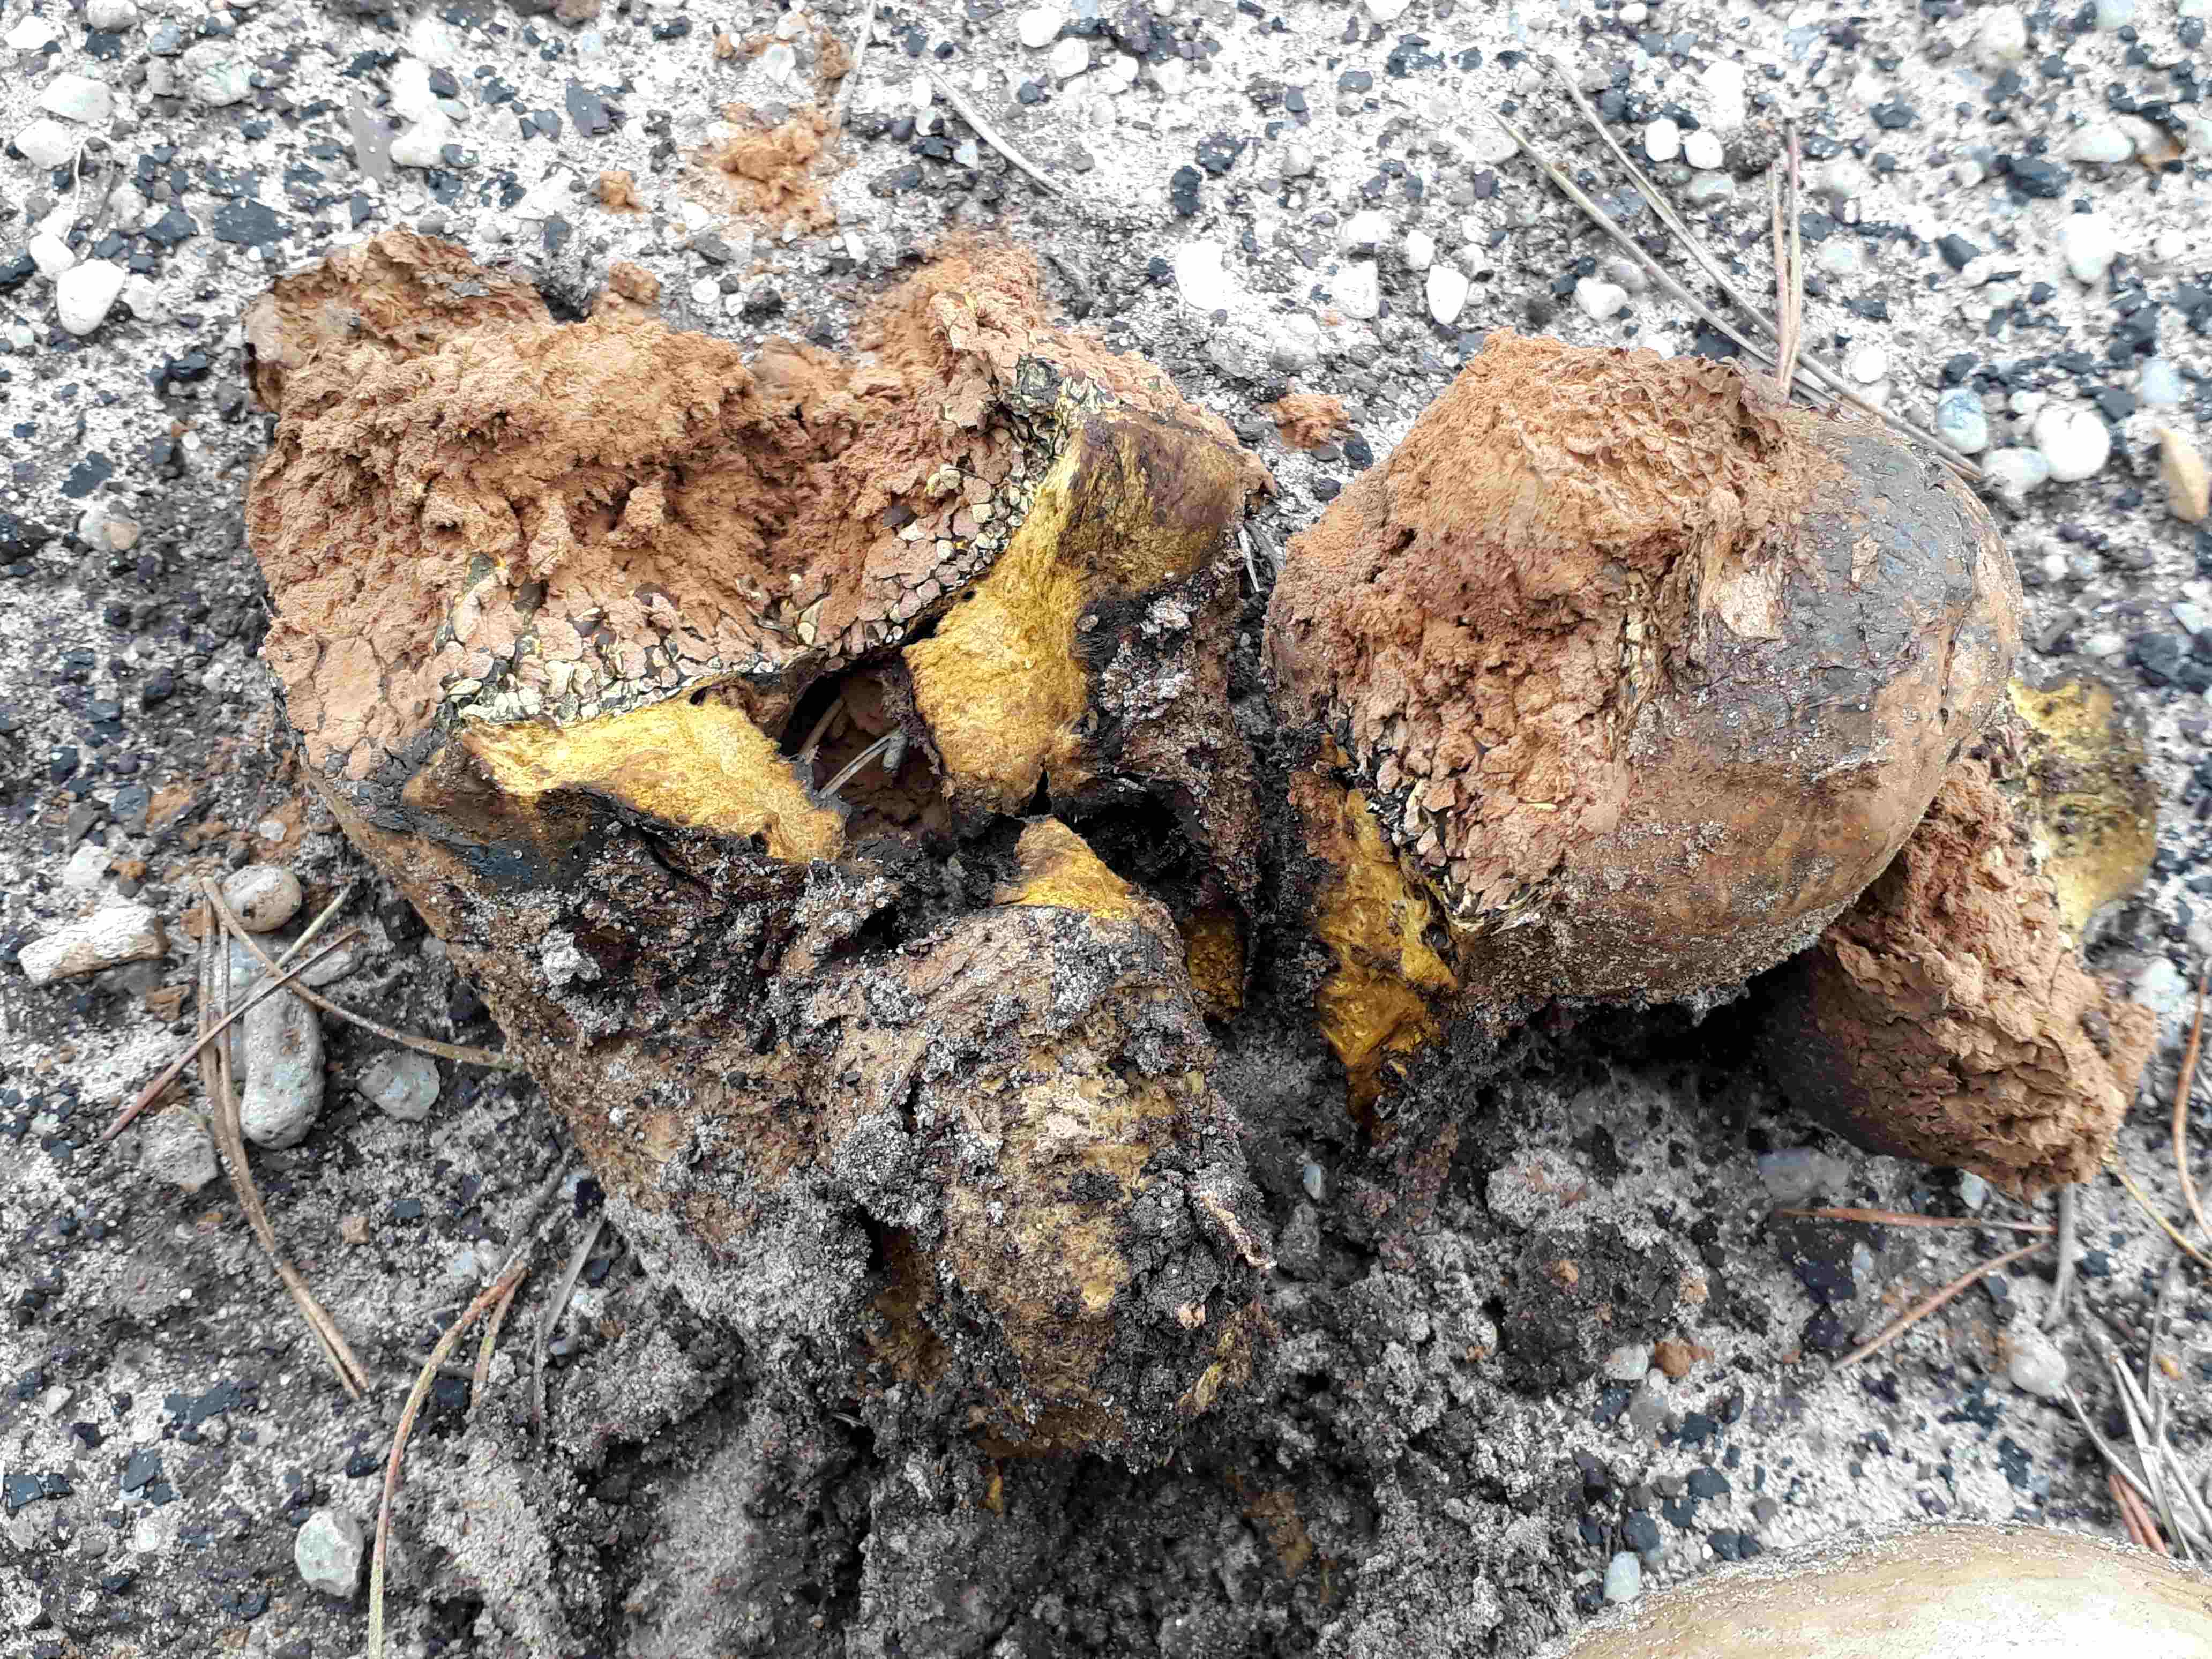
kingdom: Fungi
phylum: Basidiomycota
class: Agaricomycetes
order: Boletales
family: Sclerodermataceae
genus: Pisolithus
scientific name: Pisolithus capsulifer
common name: farvebold
